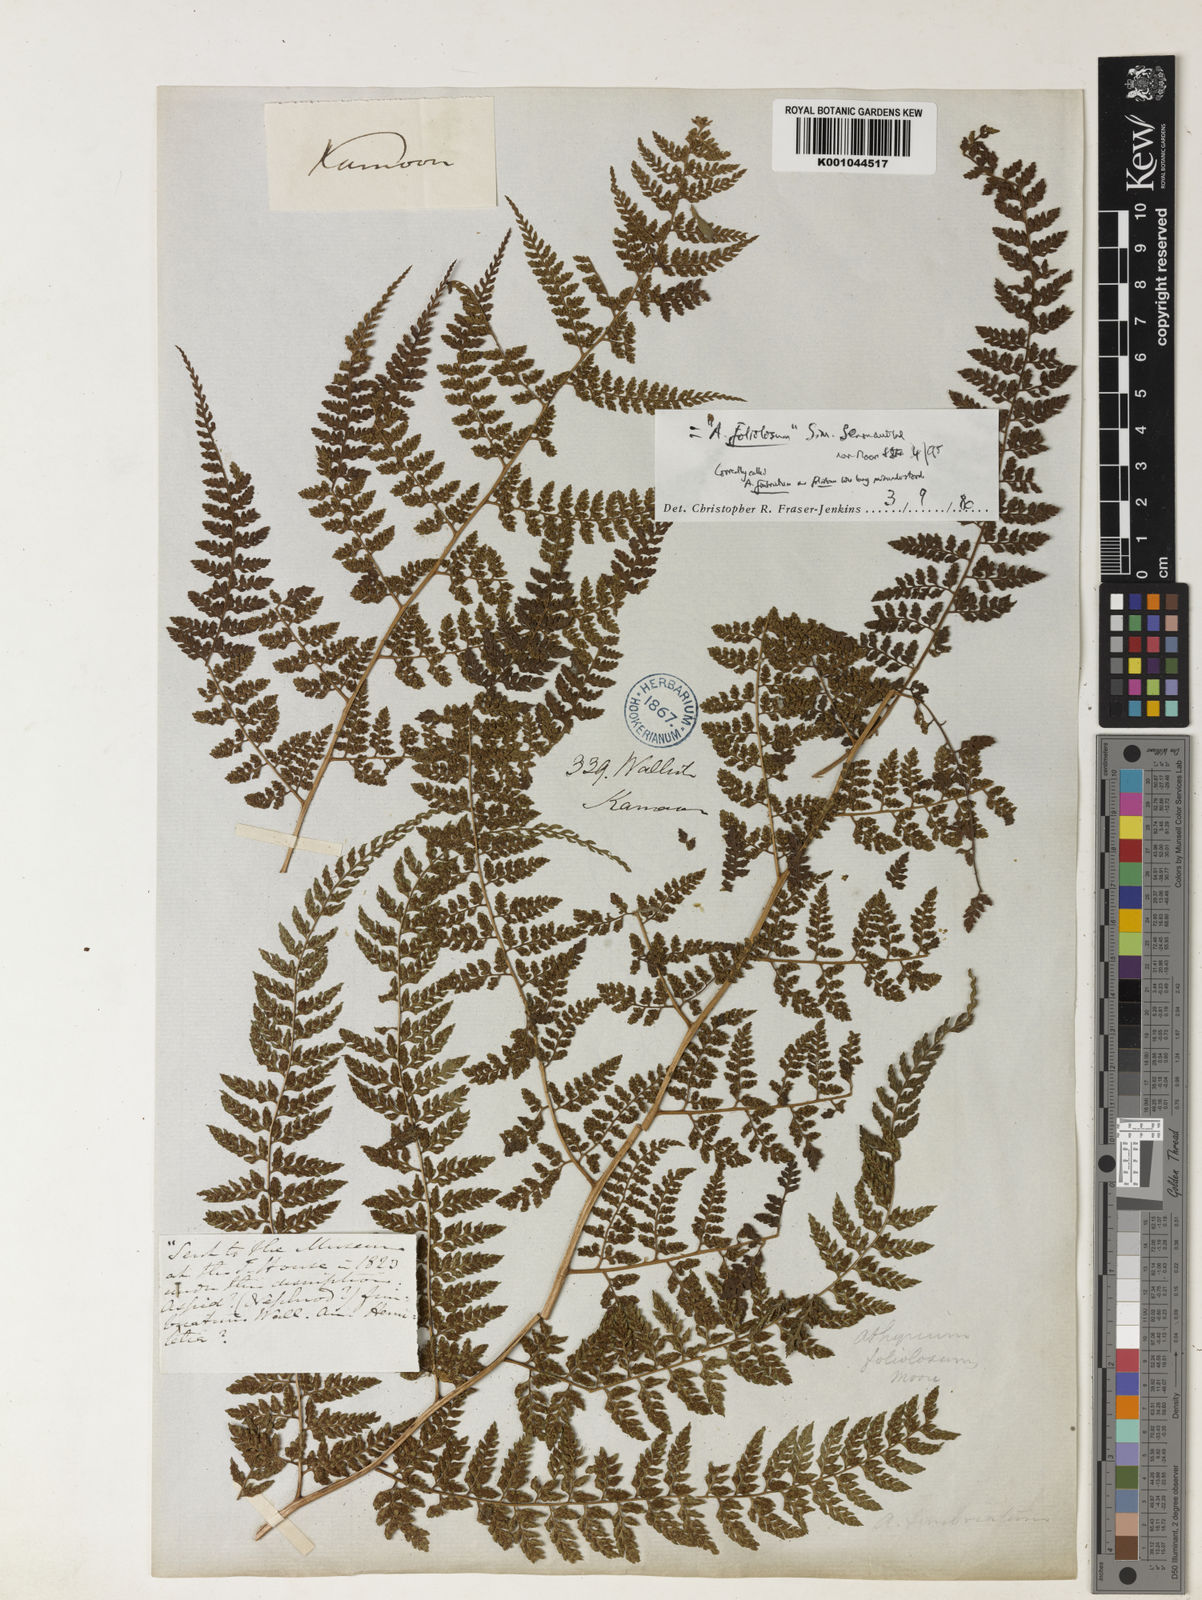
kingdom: Plantae
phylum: Tracheophyta
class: Polypodiopsida
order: Polypodiales
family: Athyriaceae
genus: Athyrium
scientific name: Athyrium fimbriatum
